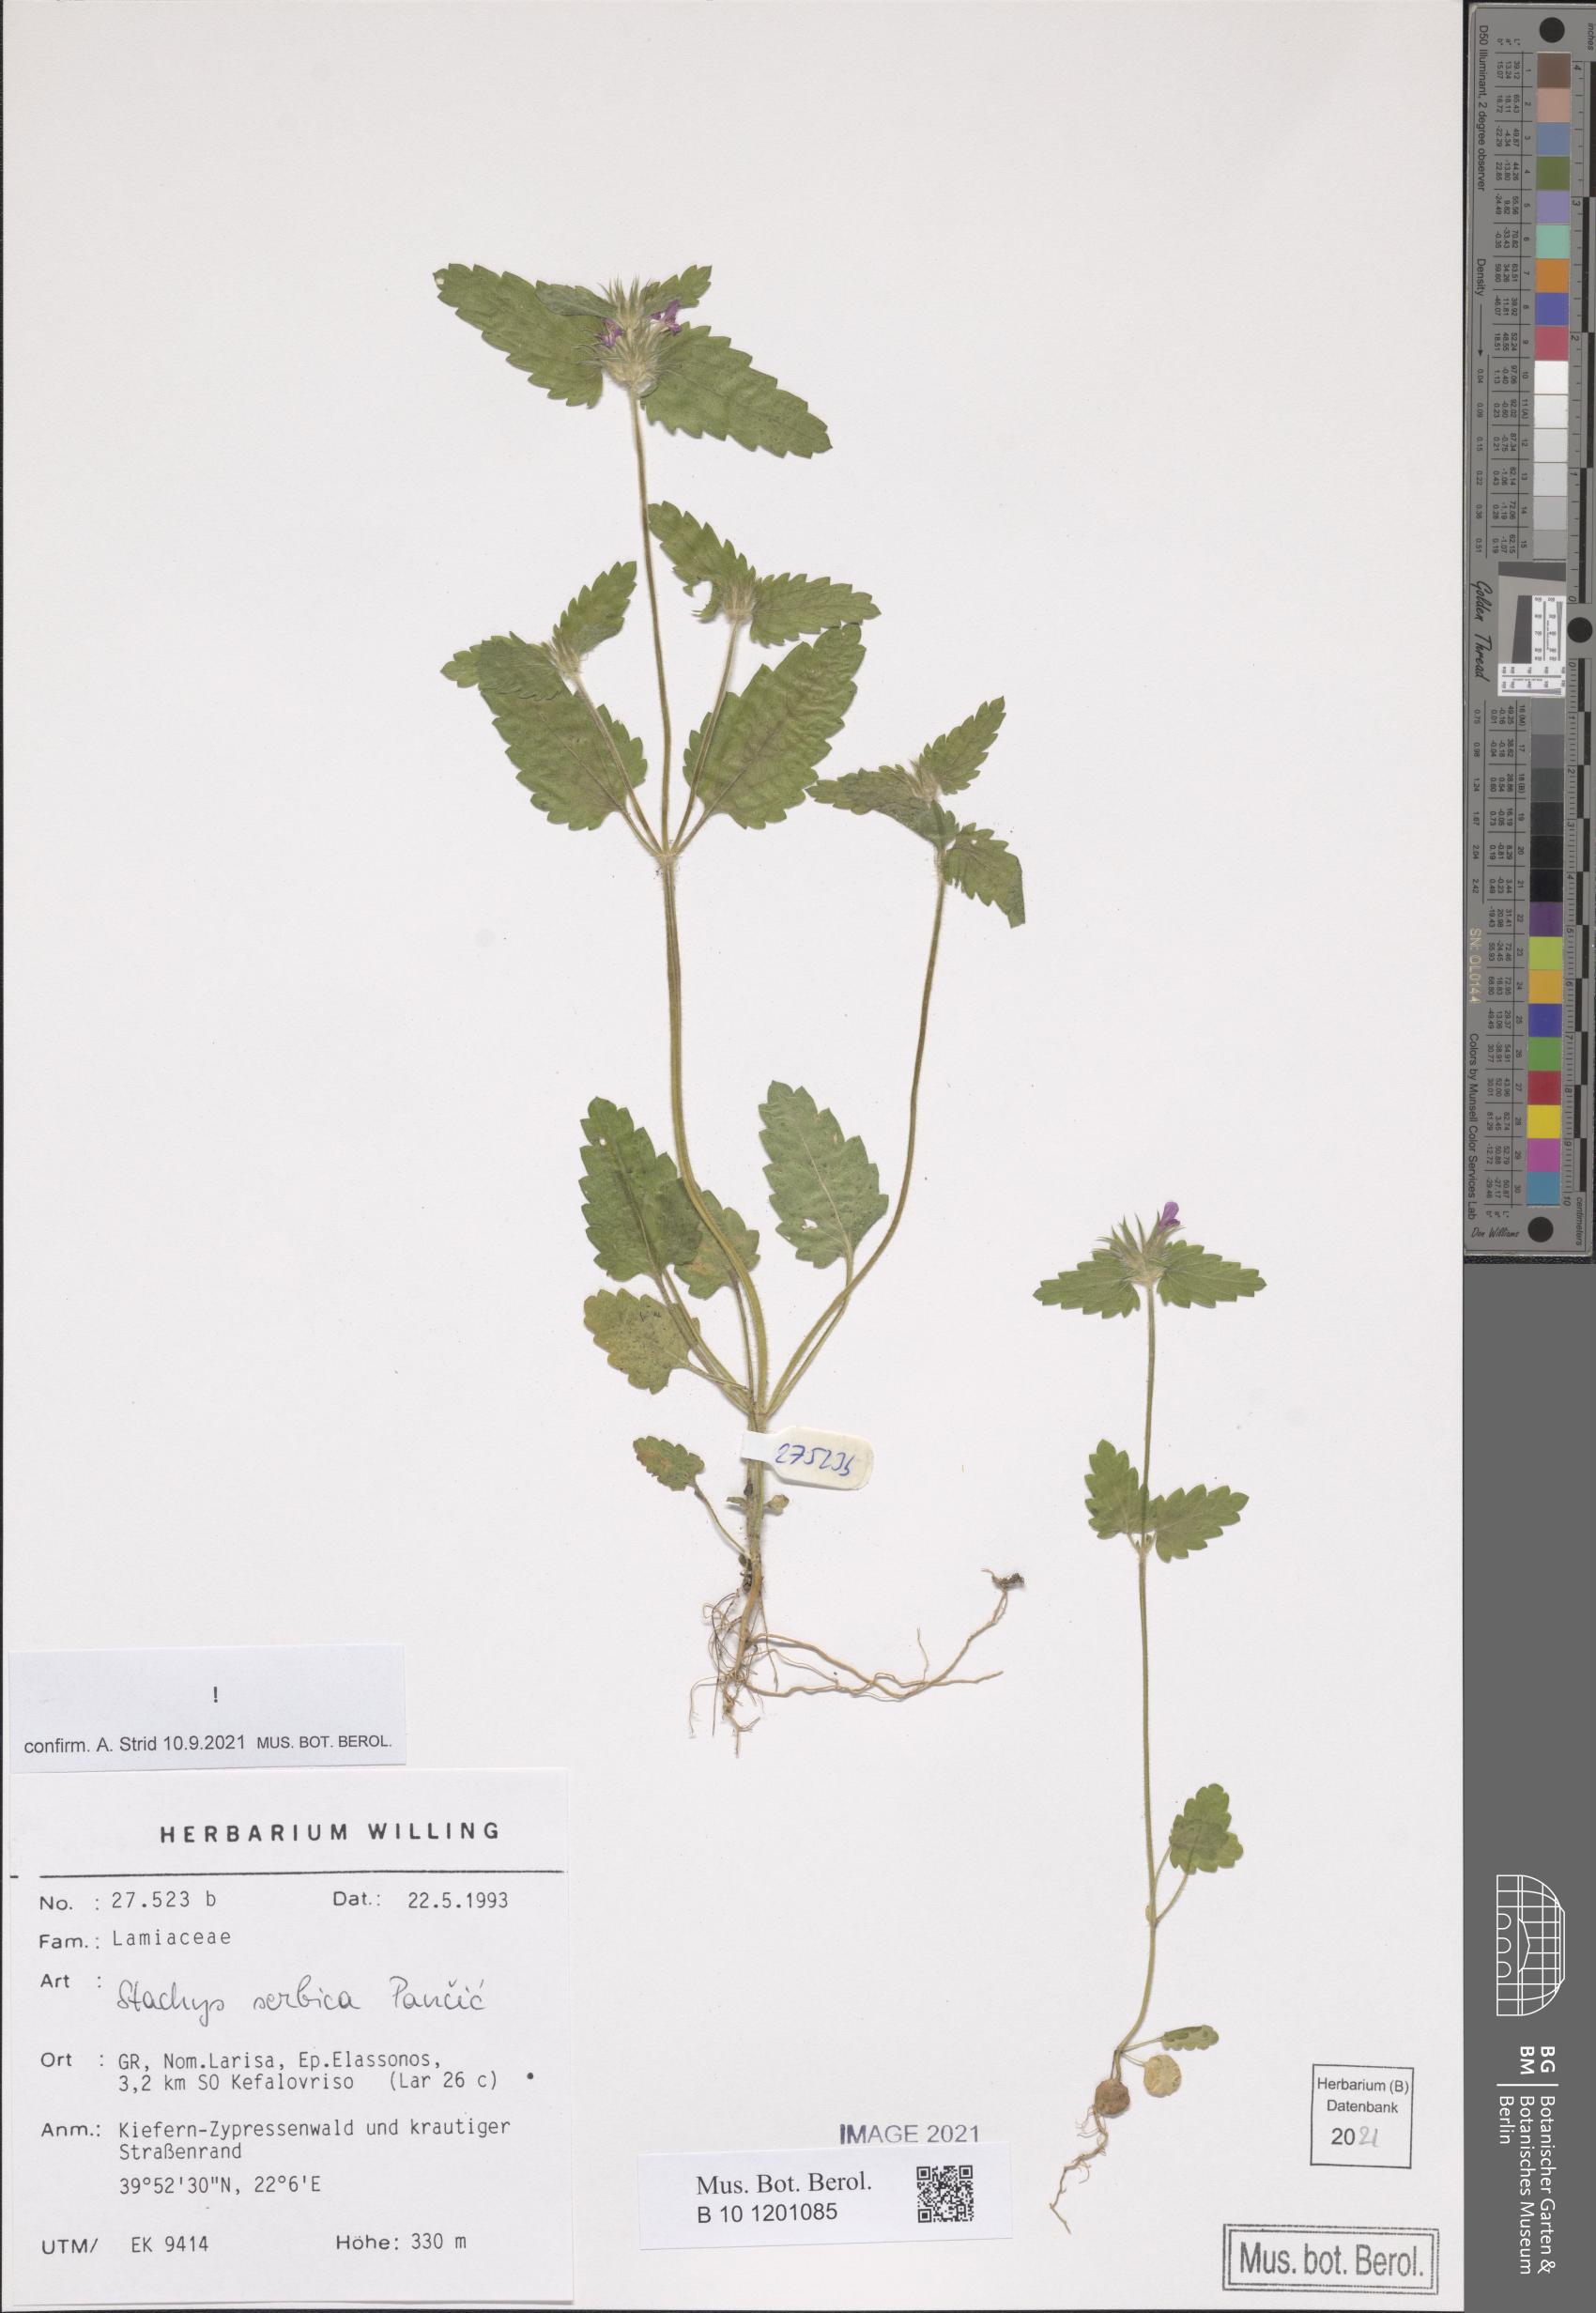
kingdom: Plantae
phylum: Tracheophyta
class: Magnoliopsida
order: Lamiales
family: Lamiaceae
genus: Stachys
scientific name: Stachys serbica
